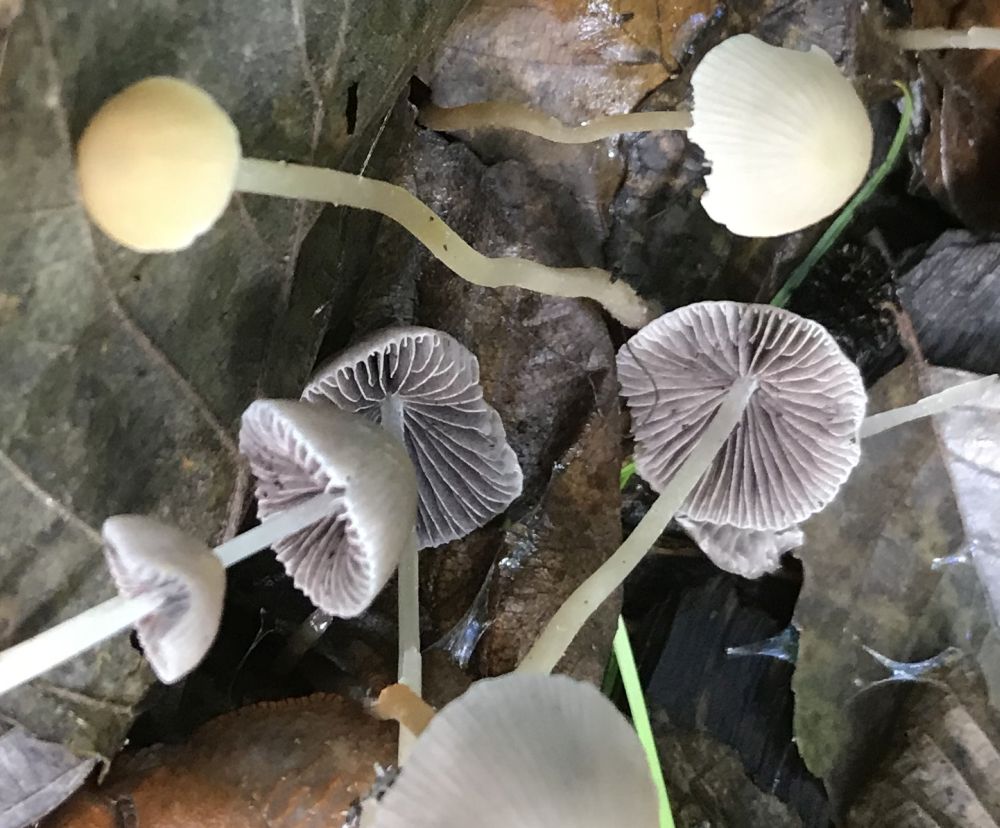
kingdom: Fungi
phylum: Basidiomycota
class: Agaricomycetes
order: Agaricales
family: Psathyrellaceae
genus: Psathyrella
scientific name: Psathyrella
